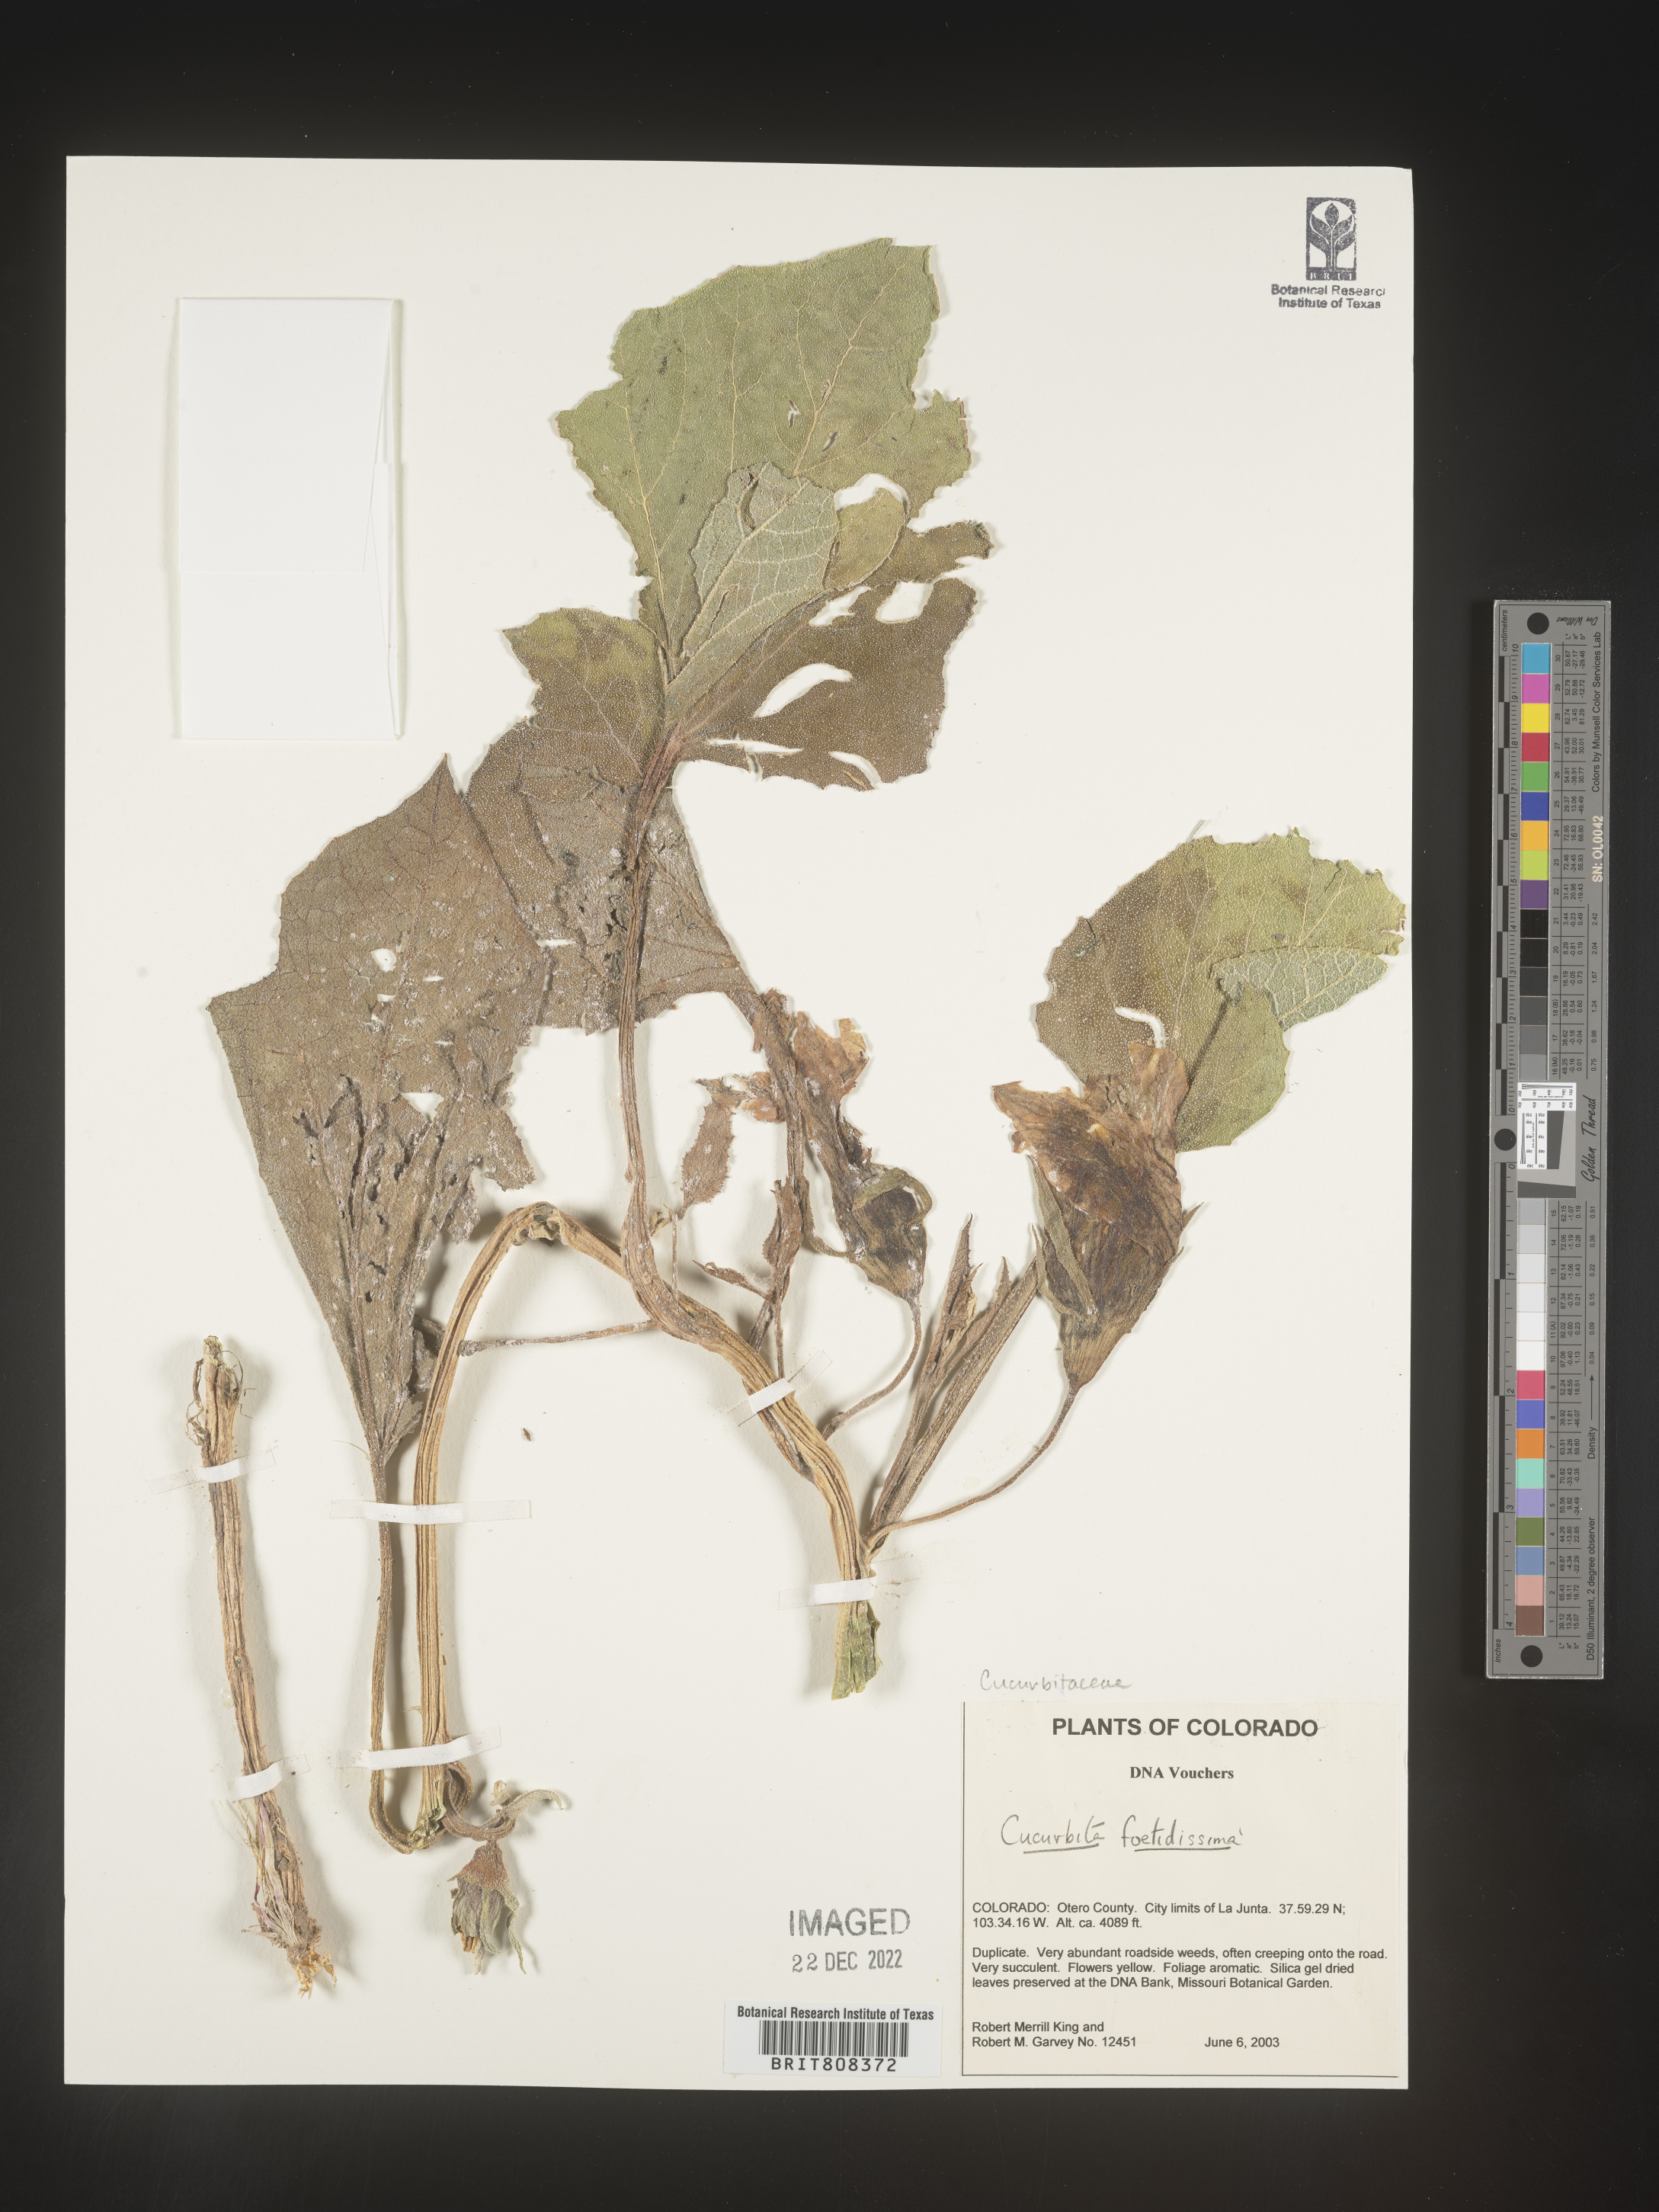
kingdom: Plantae
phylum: Tracheophyta
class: Magnoliopsida
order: Cucurbitales
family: Cucurbitaceae
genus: Cucurbita
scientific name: Cucurbita foetidissima
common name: Buffalo gourd
